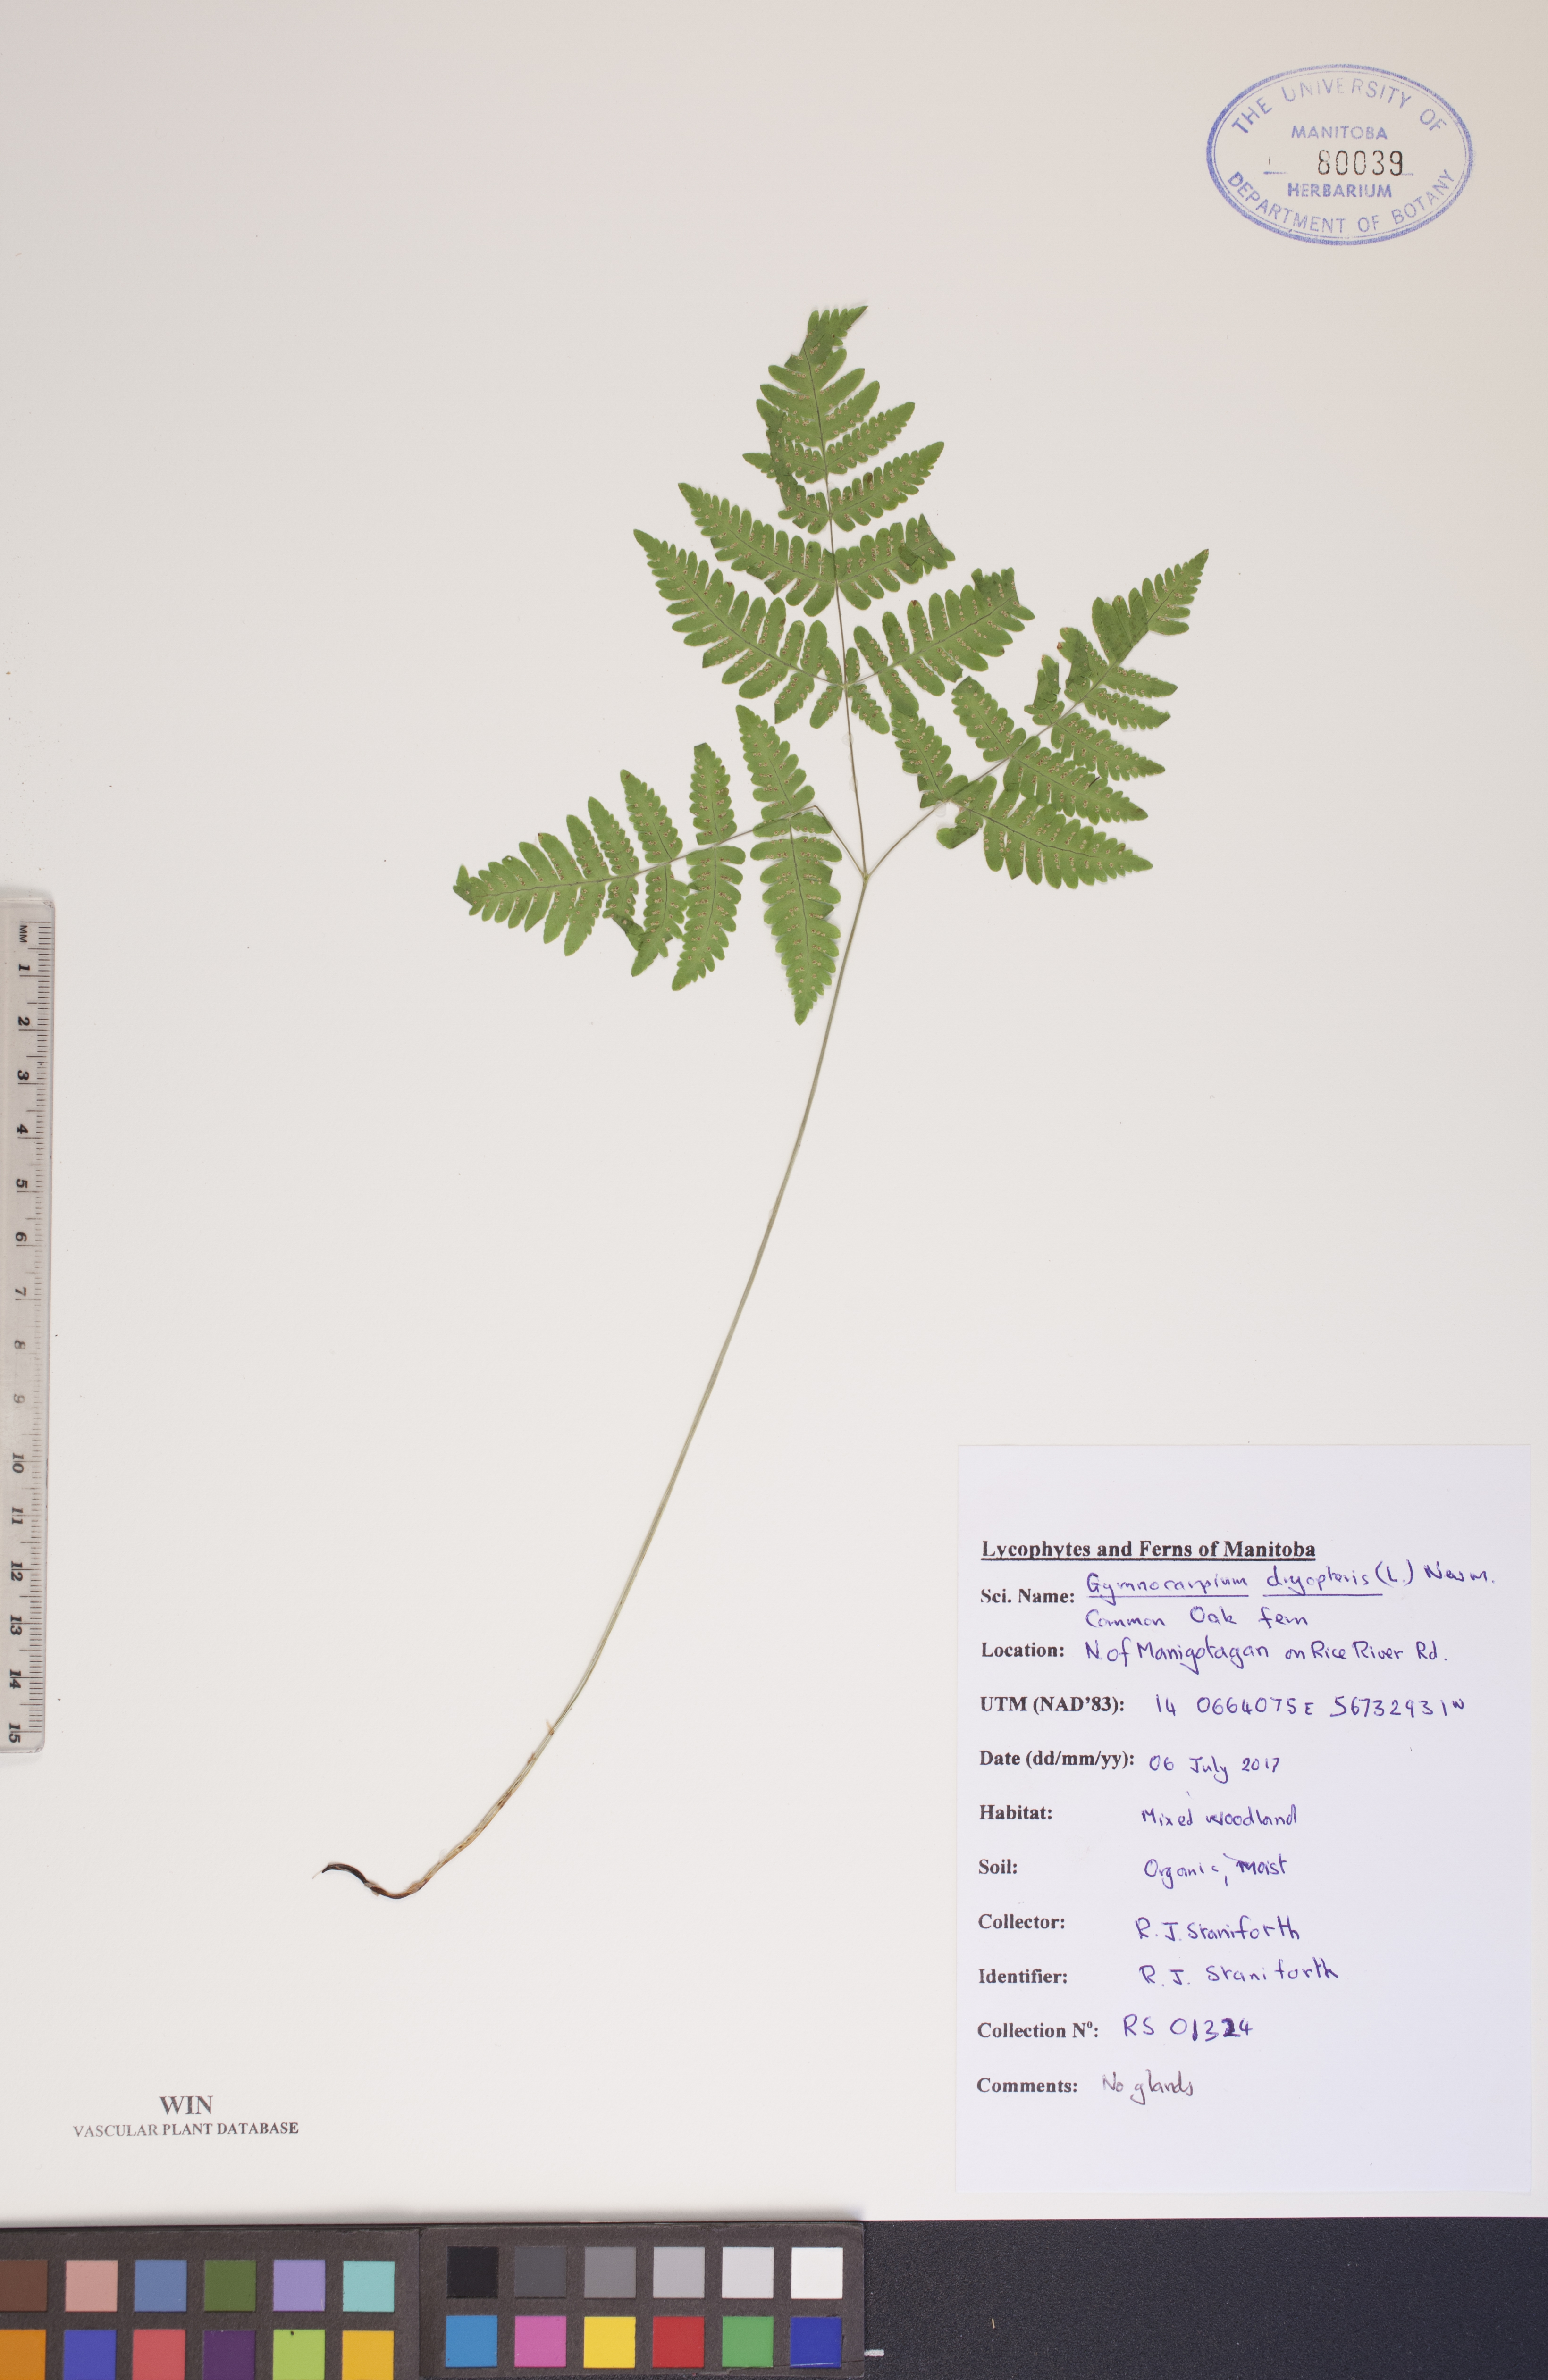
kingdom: Plantae
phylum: Tracheophyta
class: Polypodiopsida
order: Polypodiales
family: Cystopteridaceae
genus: Gymnocarpium
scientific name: Gymnocarpium dryopteris
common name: Oak fern
